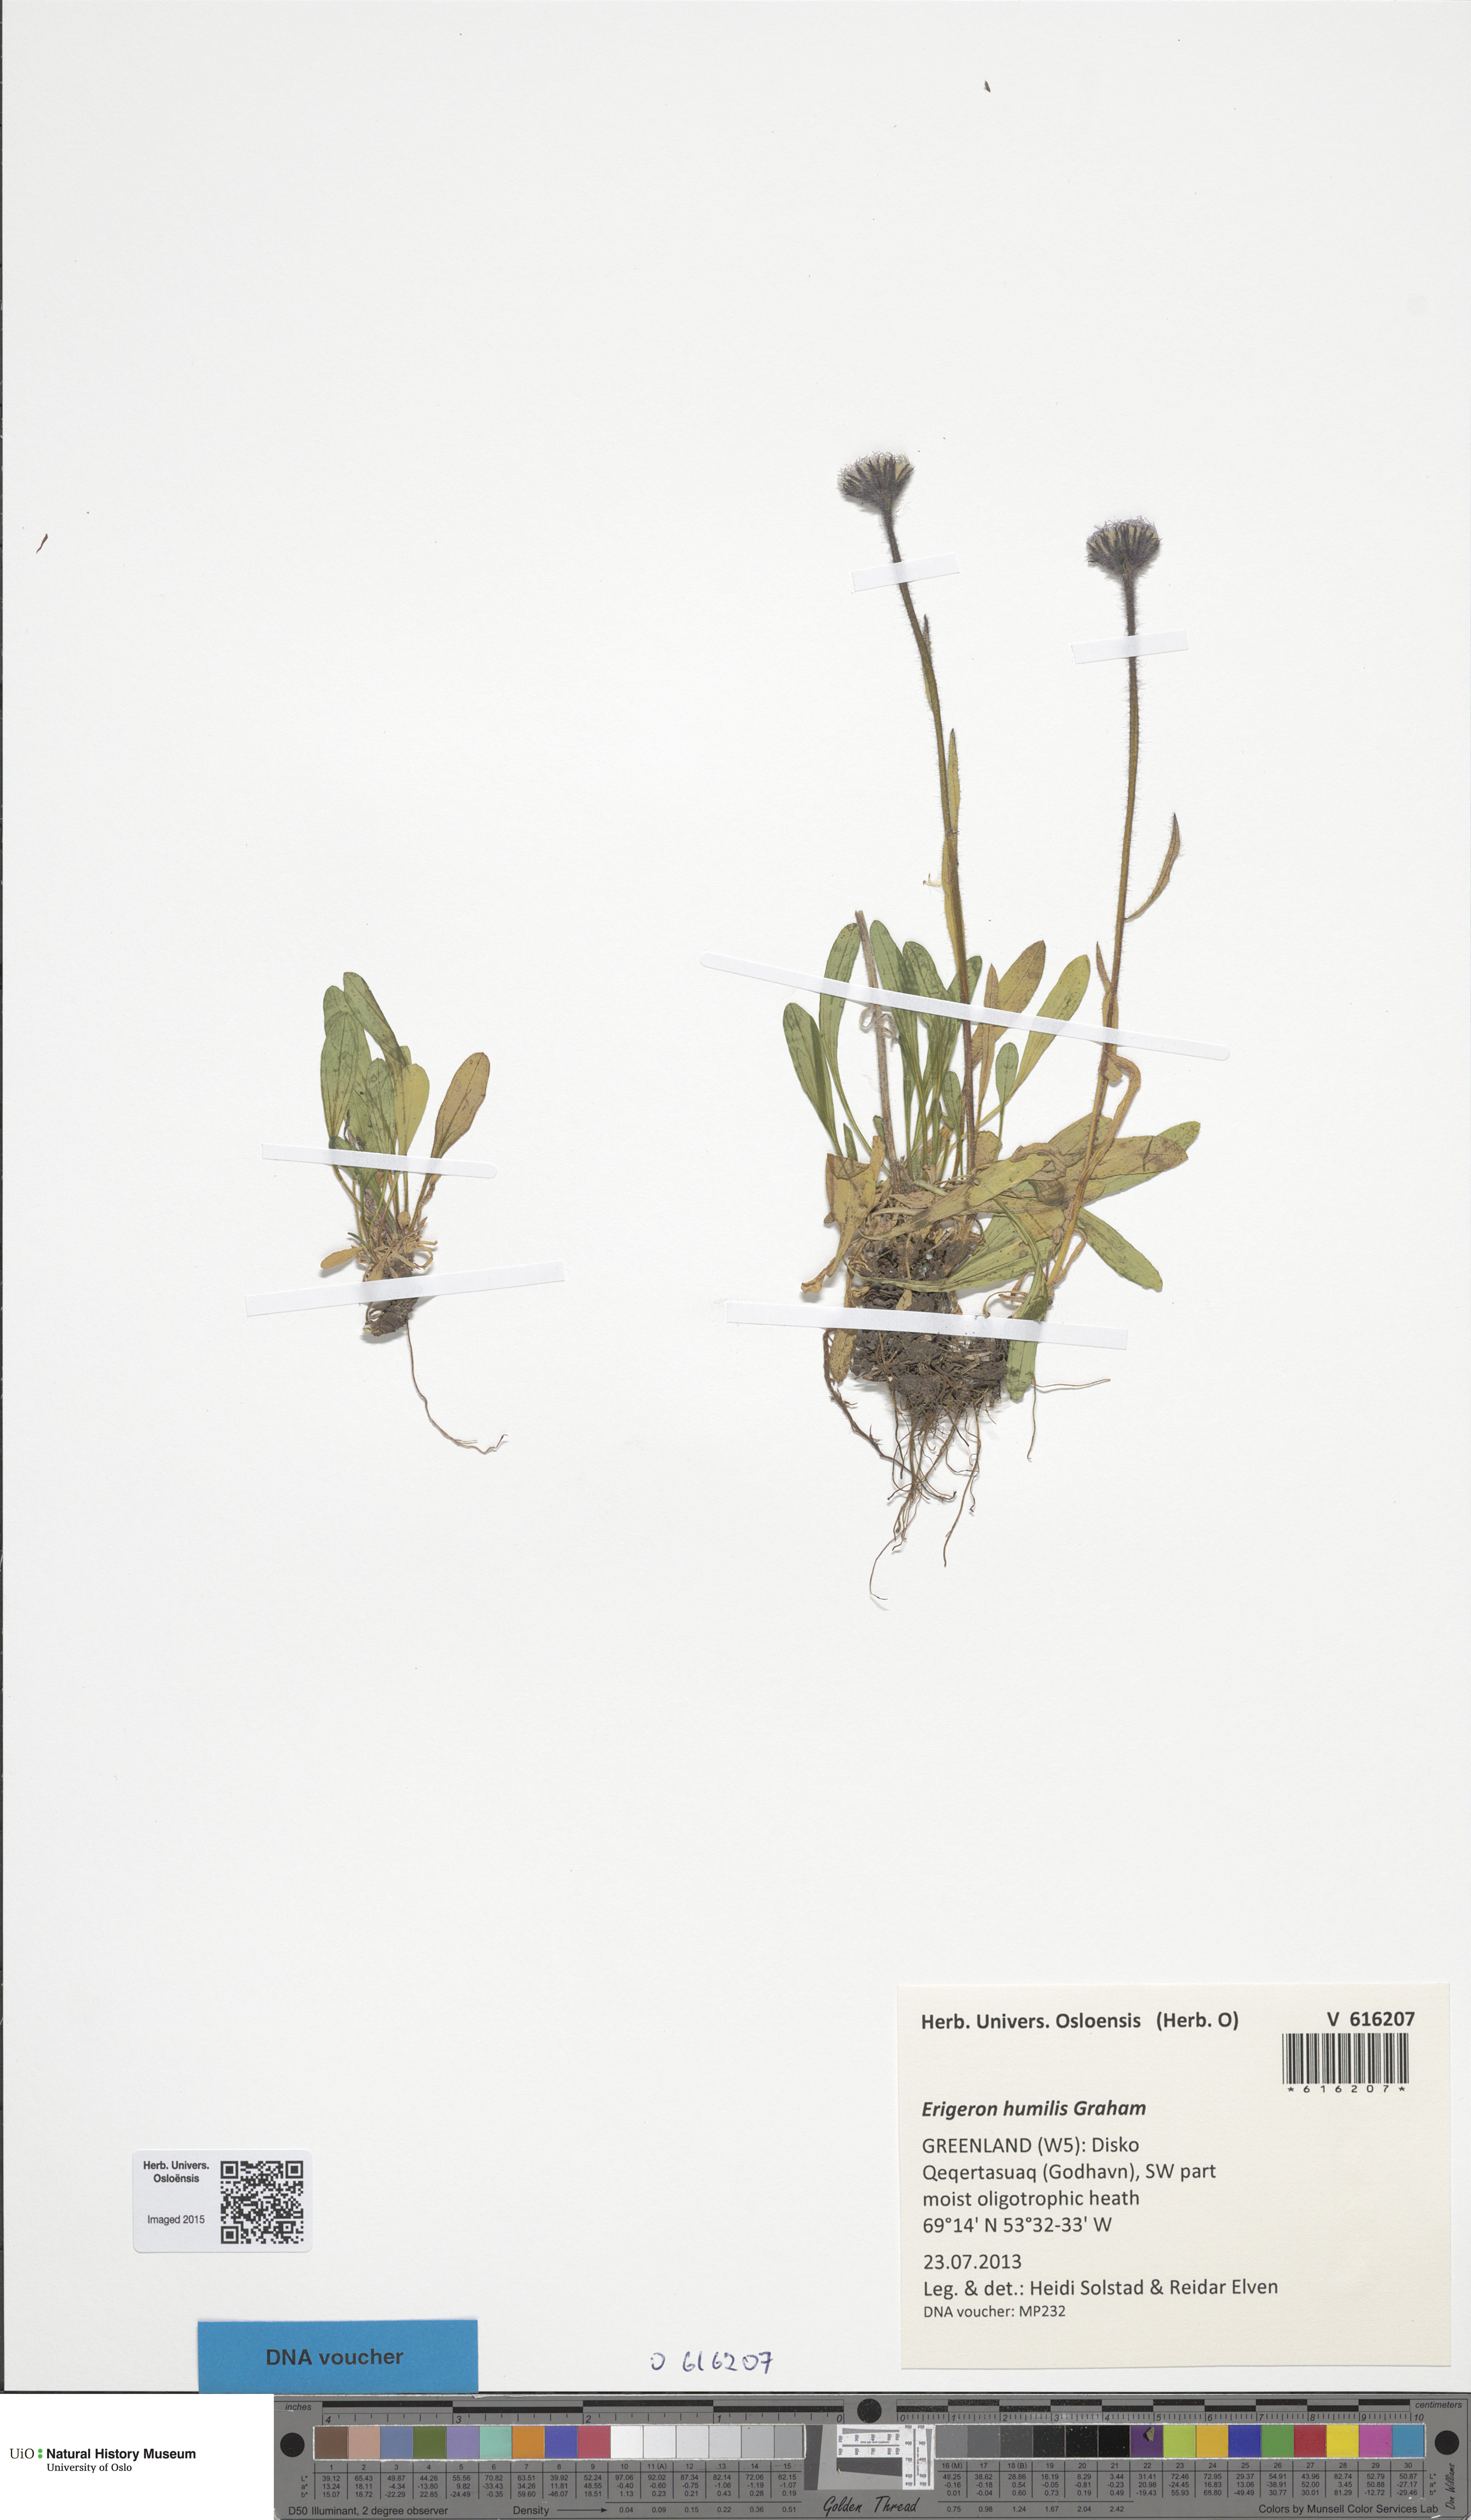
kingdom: Plantae
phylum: Tracheophyta
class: Magnoliopsida
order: Asterales
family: Asteraceae
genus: Erigeron
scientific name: Erigeron humilis
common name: Arctic-alpine fleabane
